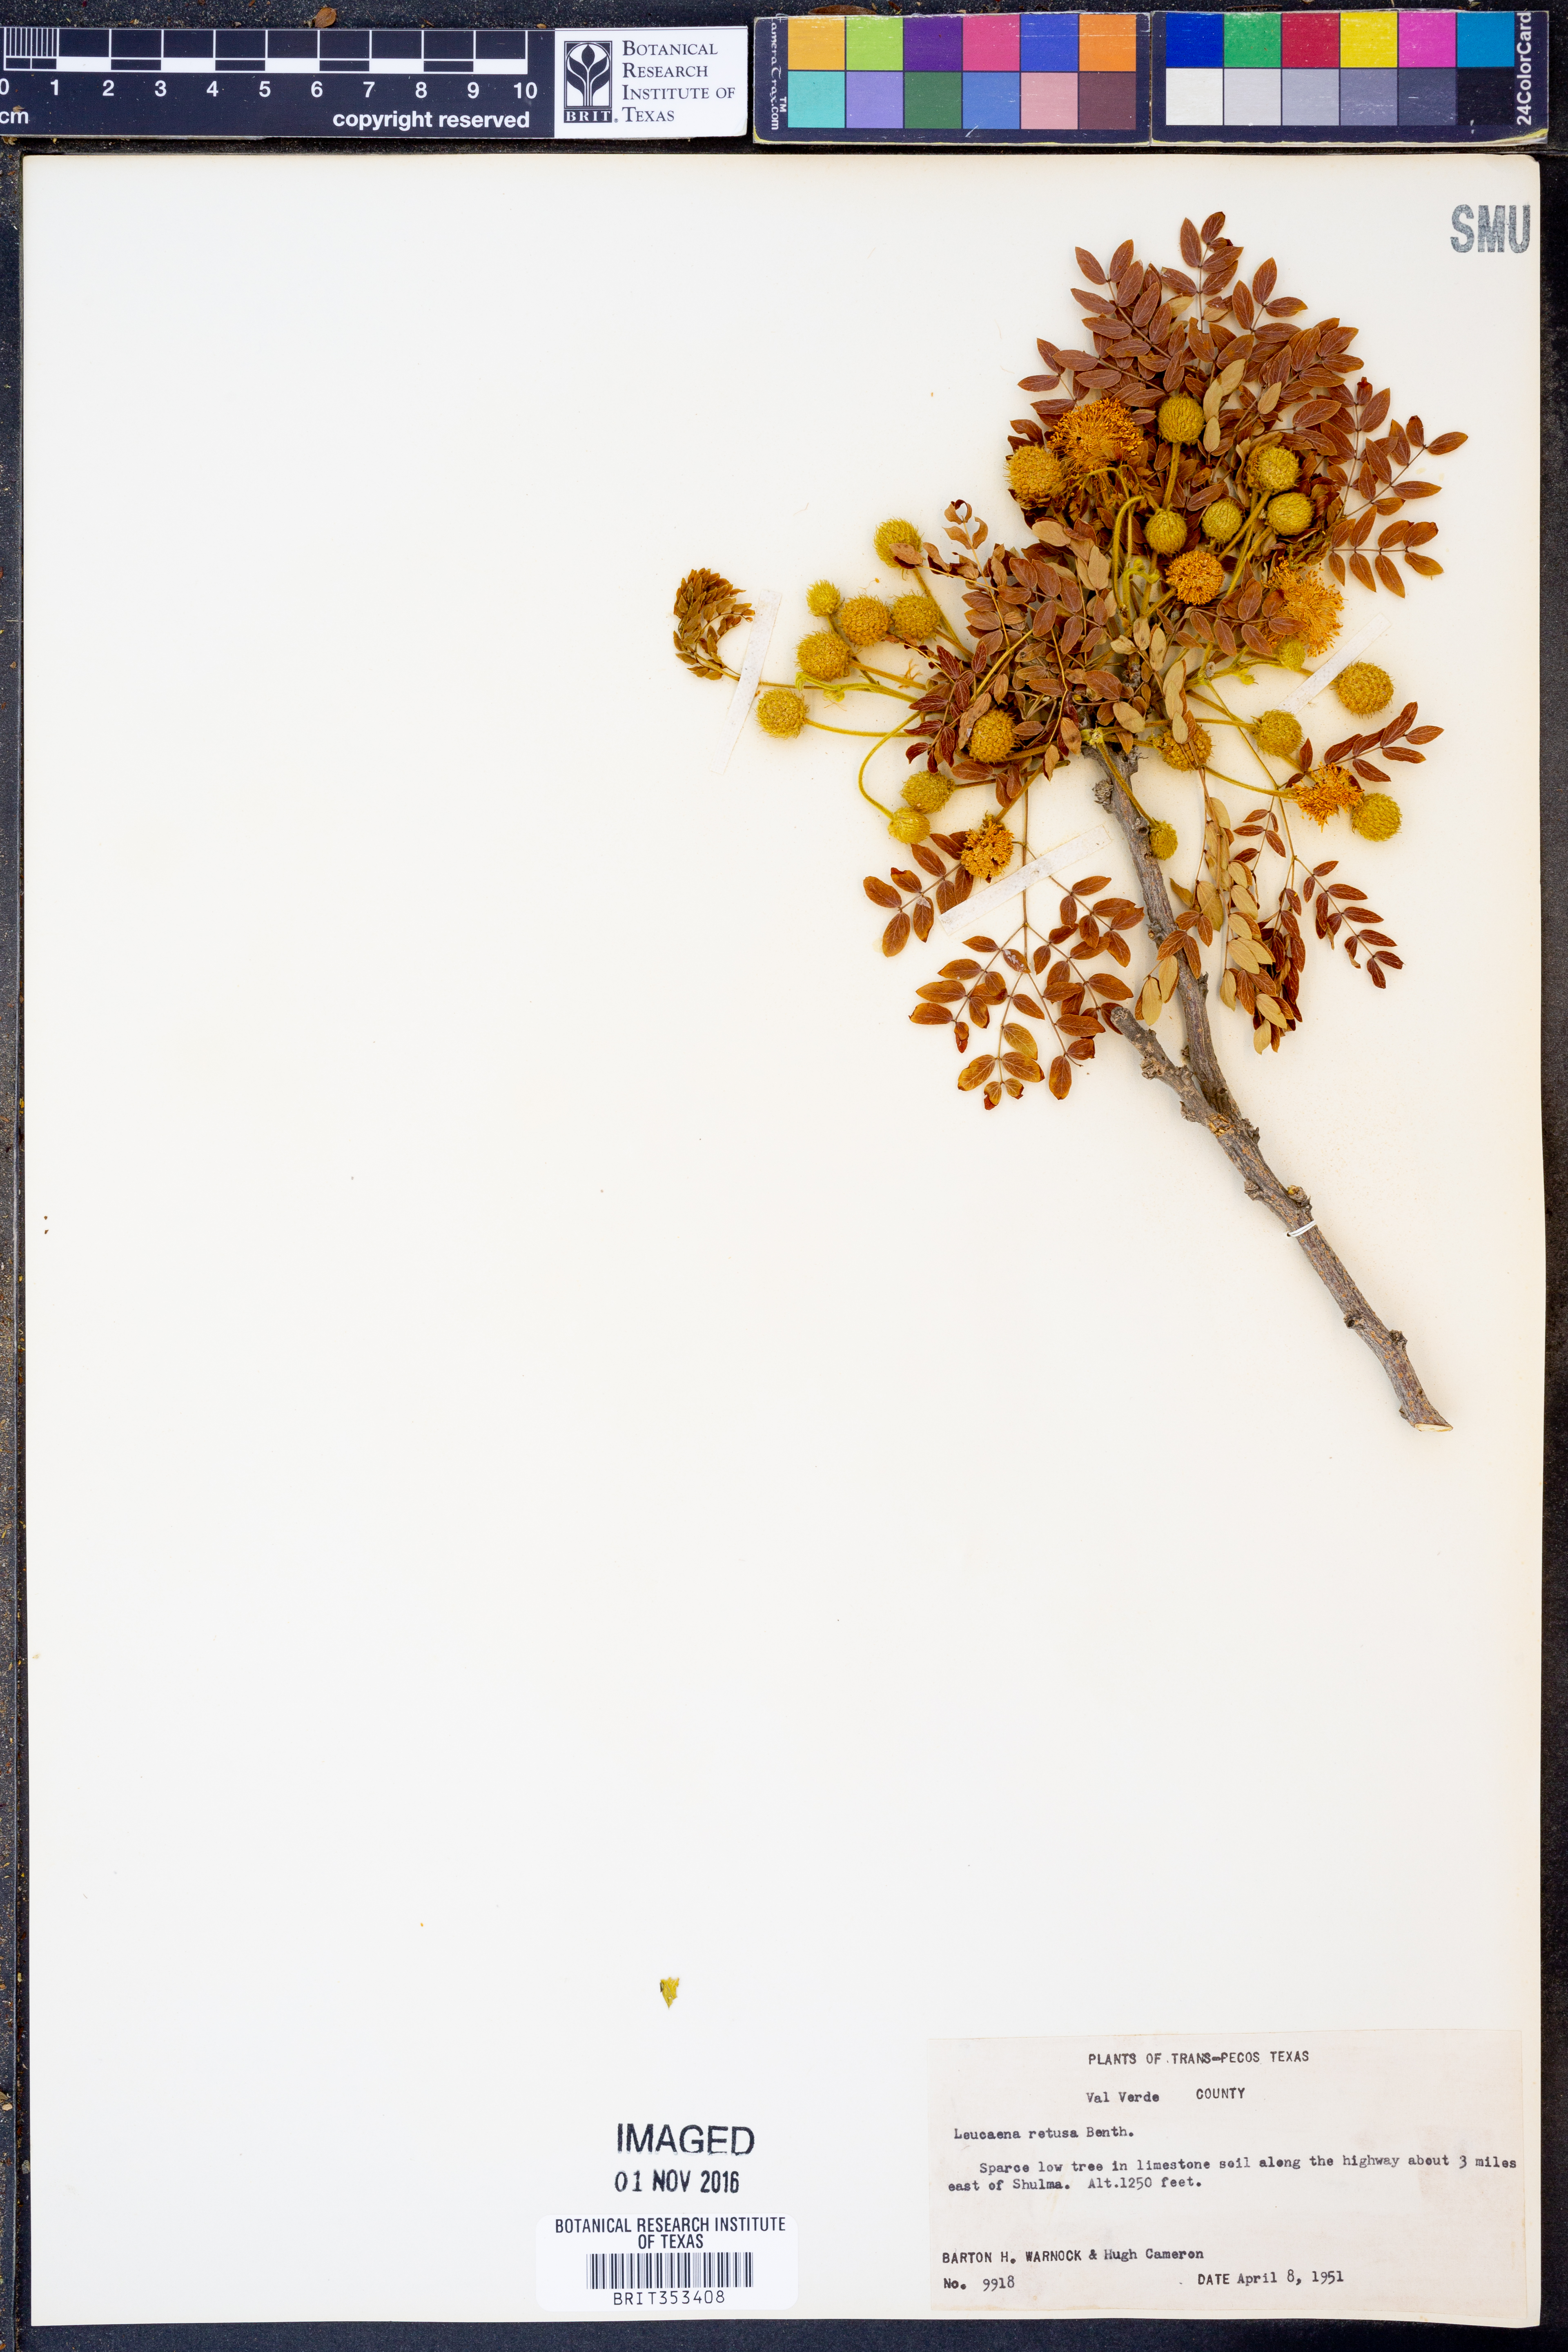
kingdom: Plantae
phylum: Tracheophyta
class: Magnoliopsida
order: Fabales
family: Fabaceae
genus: Leucaena
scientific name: Leucaena retusa
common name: Littleleaf leadtree
